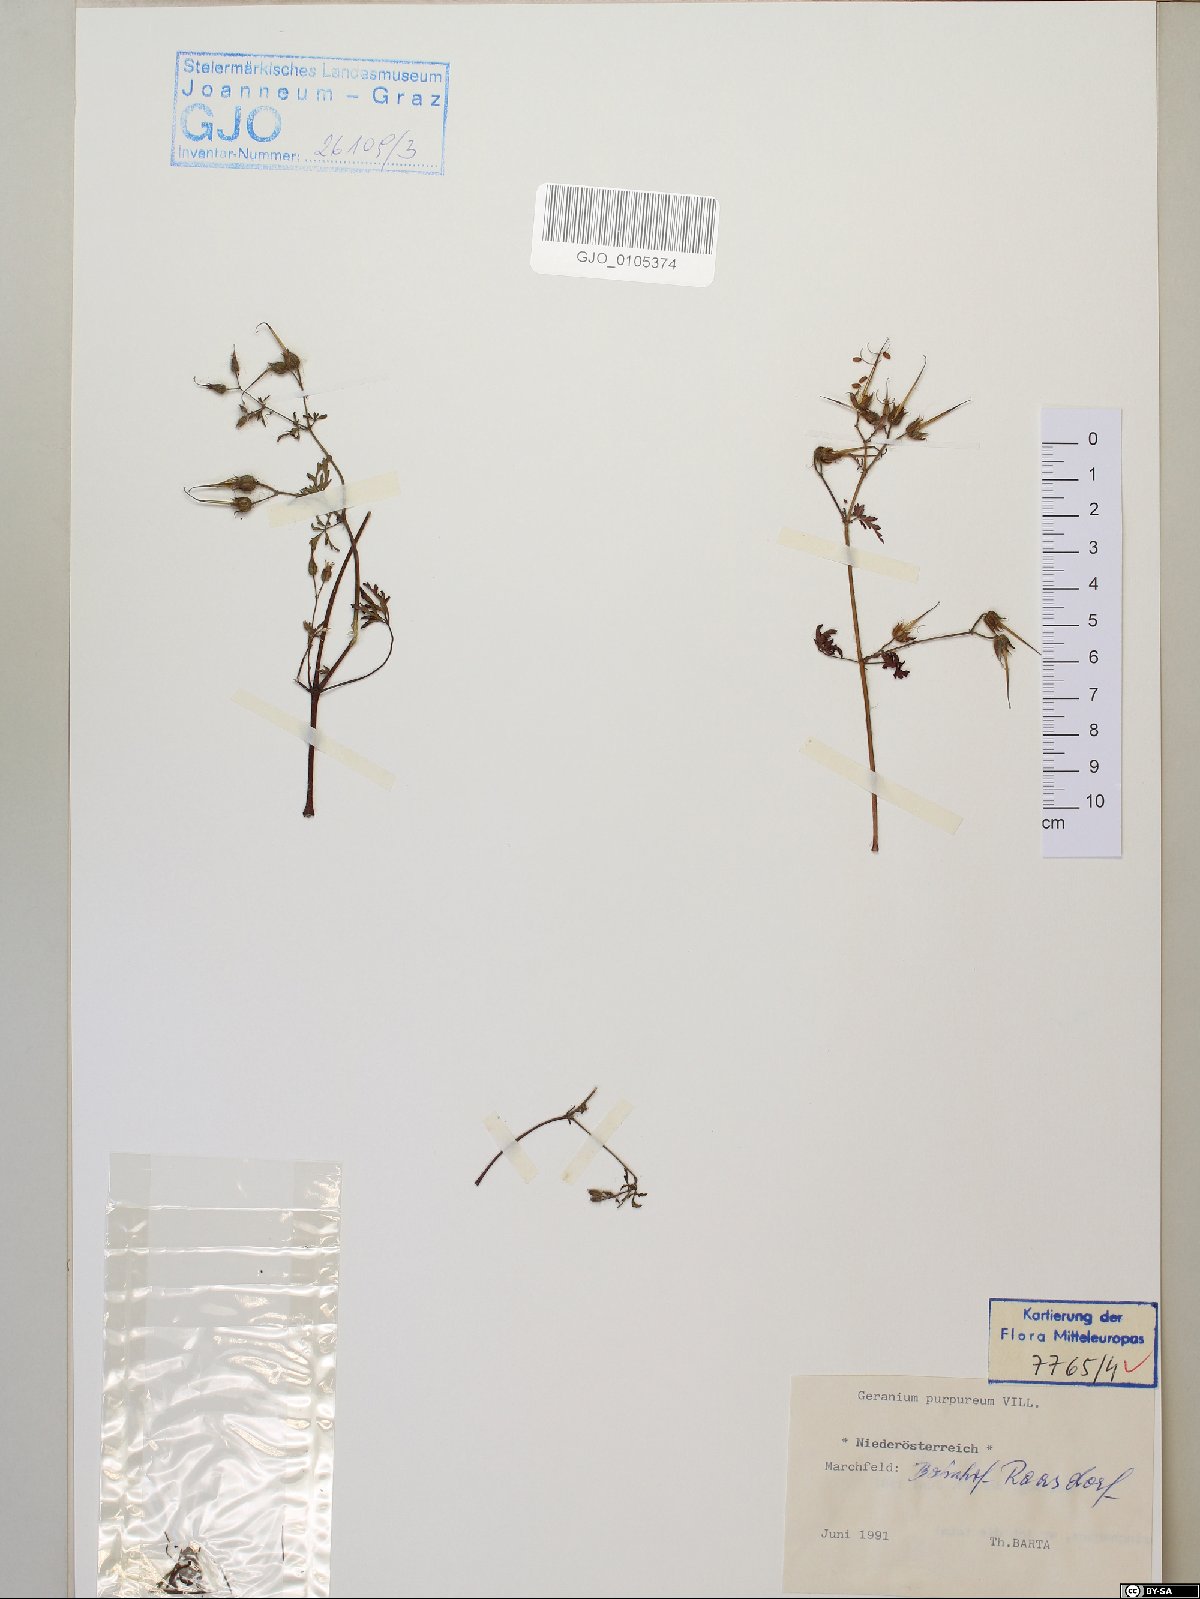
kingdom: Plantae
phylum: Tracheophyta
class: Magnoliopsida
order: Geraniales
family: Geraniaceae
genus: Geranium
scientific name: Geranium purpureum
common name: Little-robin
